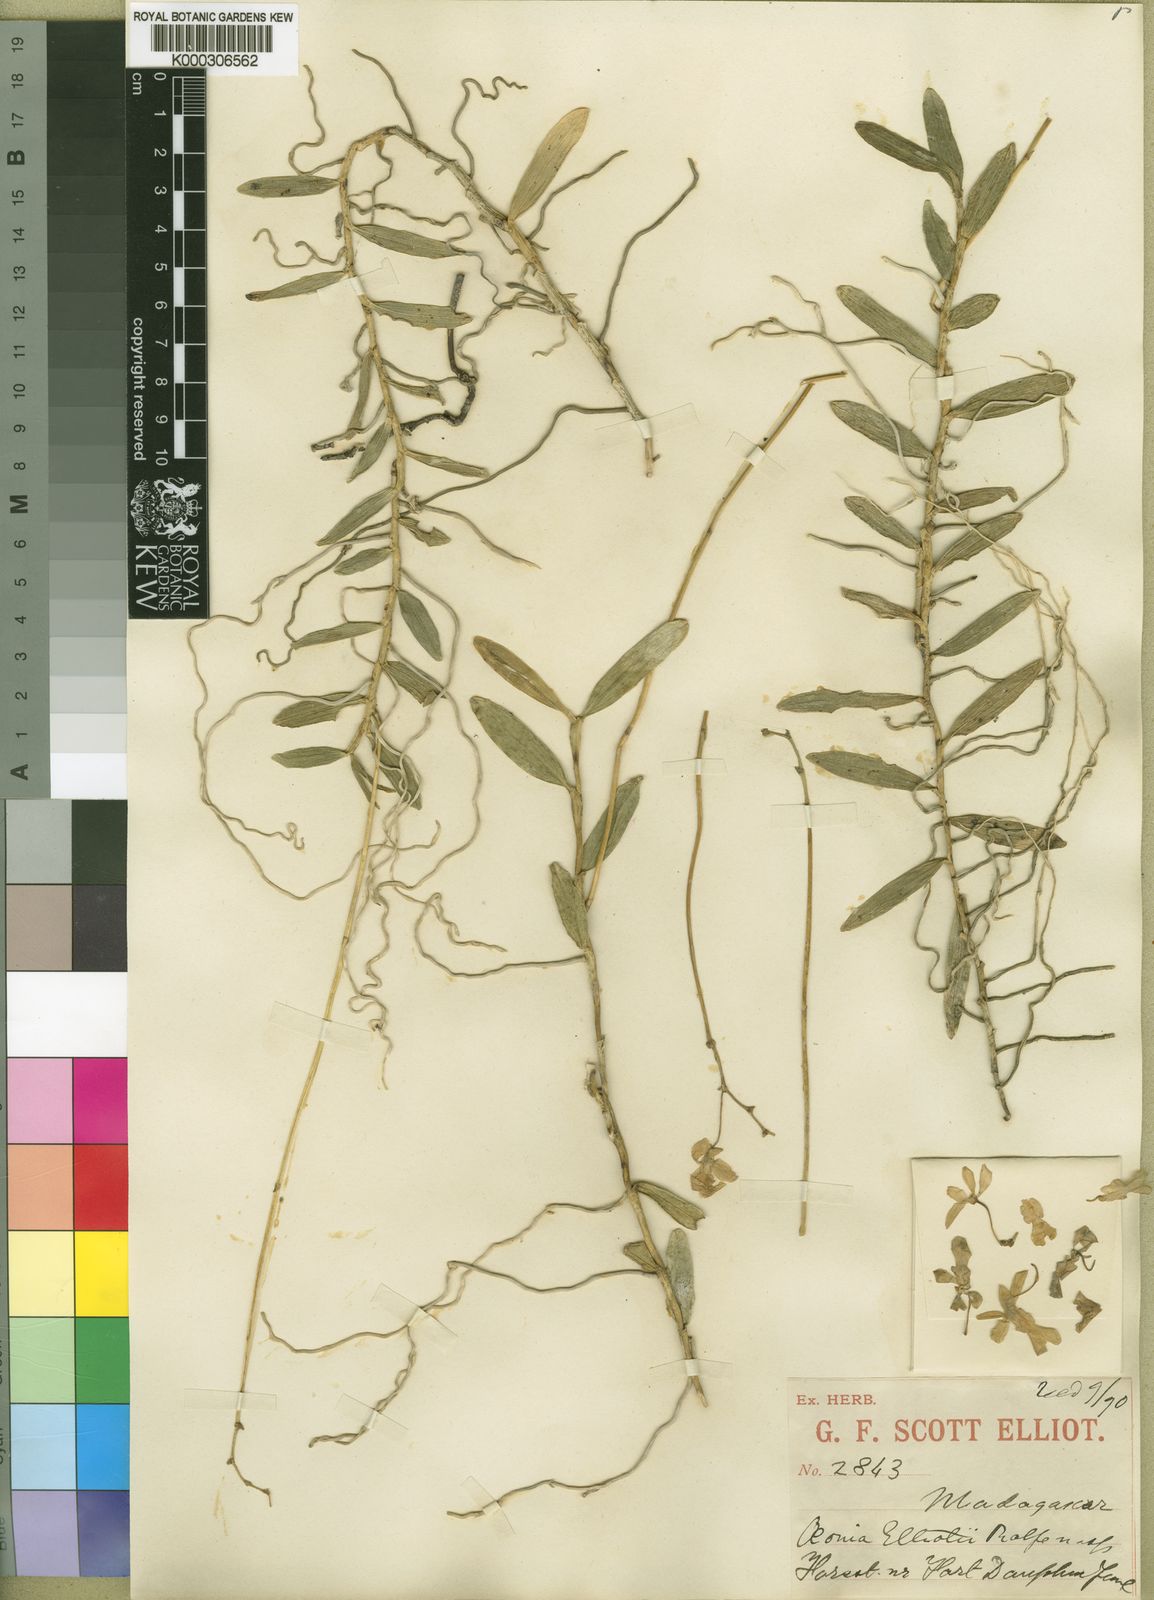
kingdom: Plantae
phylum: Tracheophyta
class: Liliopsida
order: Asparagales
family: Orchidaceae
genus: Oeonia
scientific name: Oeonia volucris
